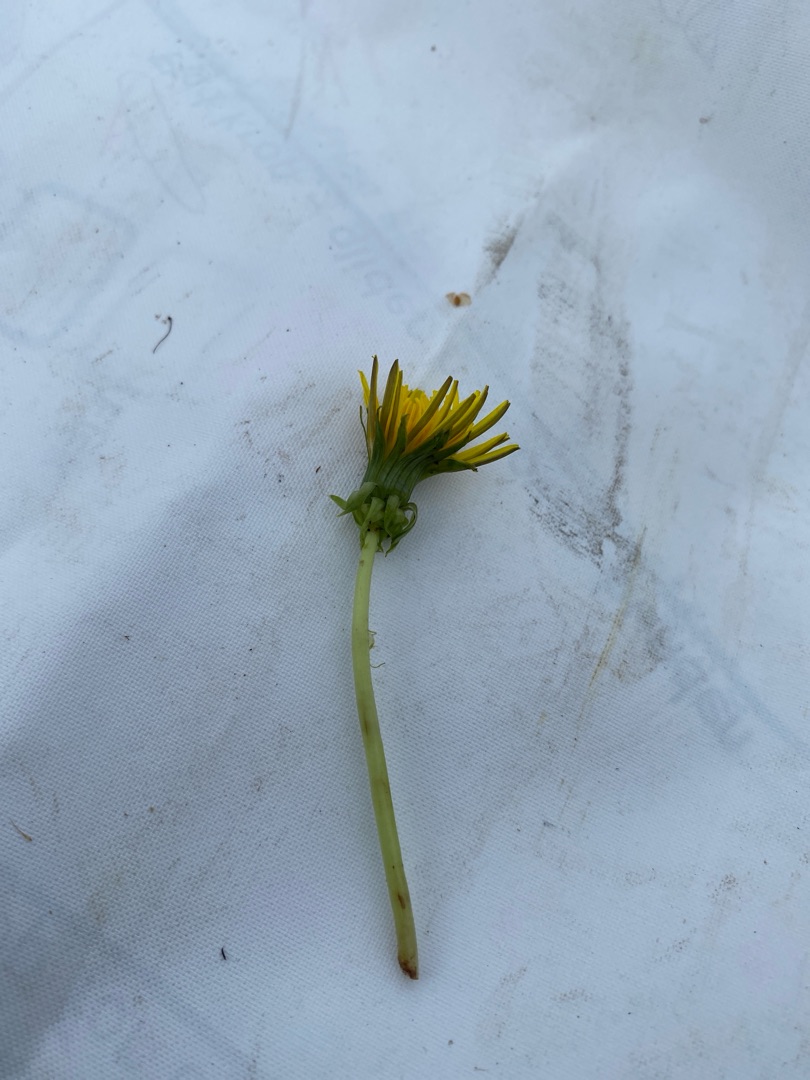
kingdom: Plantae
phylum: Tracheophyta
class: Magnoliopsida
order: Asterales
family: Asteraceae
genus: Taraxacum
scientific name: Taraxacum
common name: Mælkebøtteslægten
